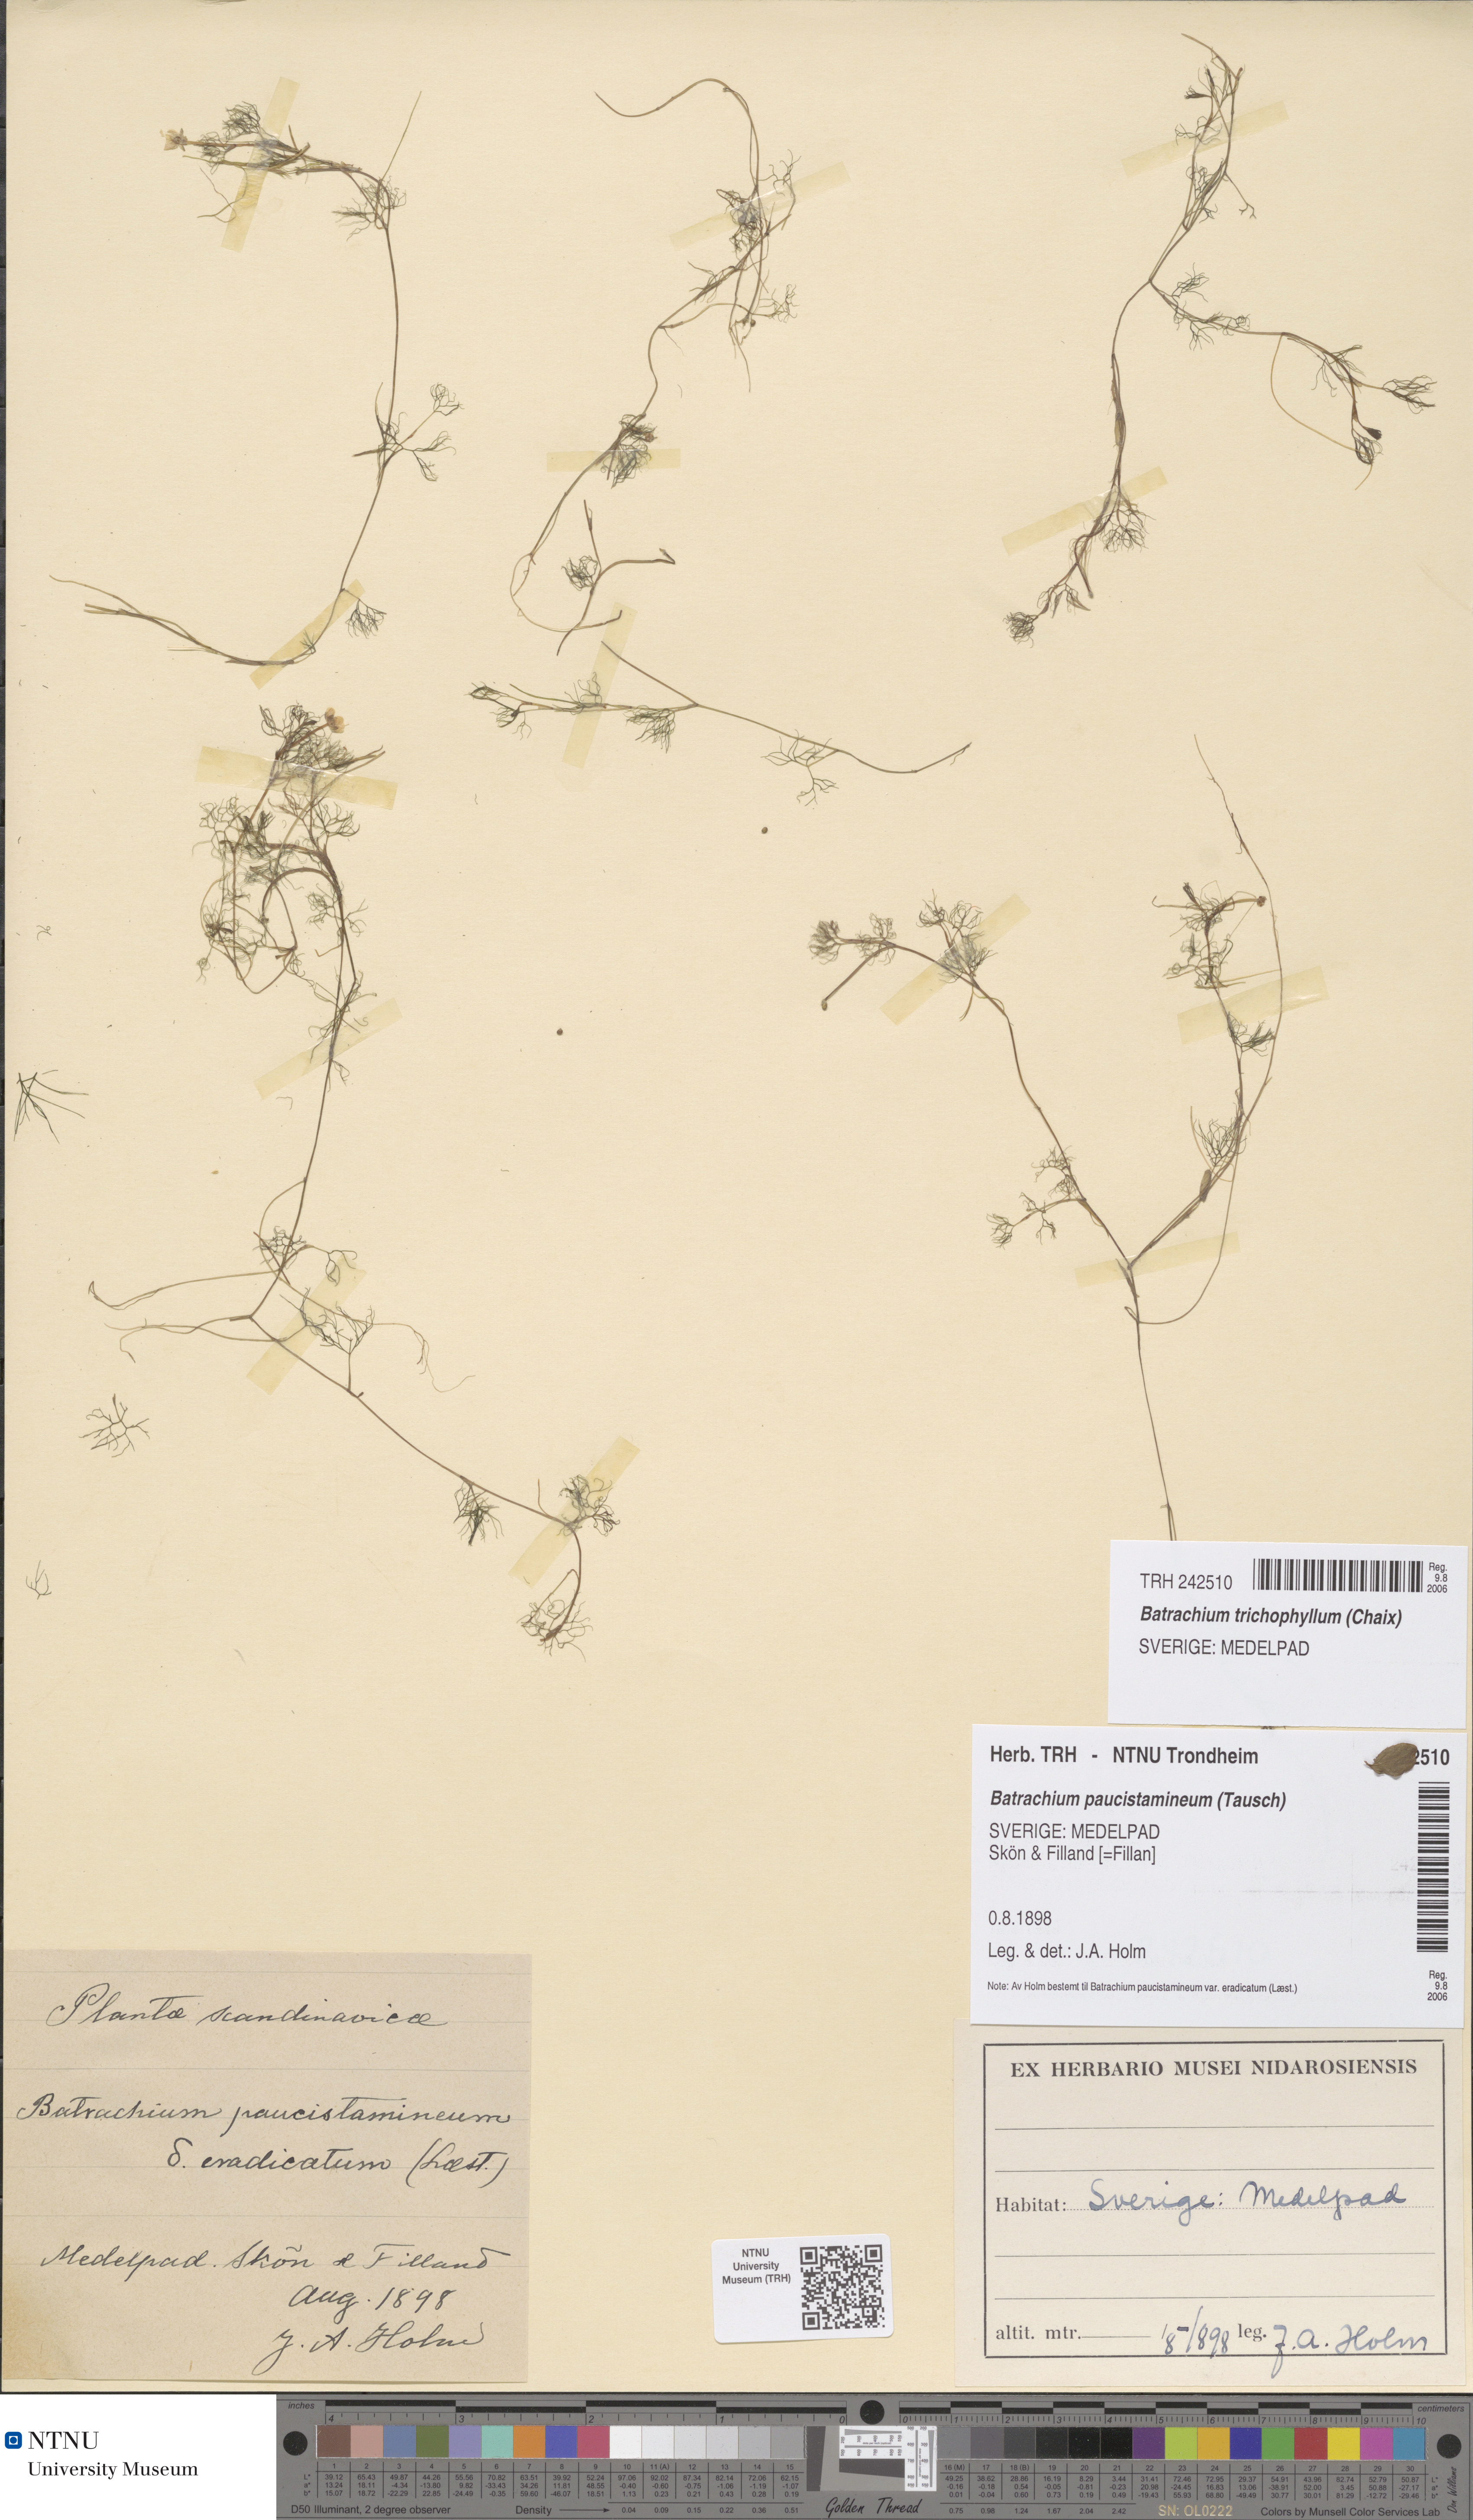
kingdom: Plantae
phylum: Tracheophyta
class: Magnoliopsida
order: Ranunculales
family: Ranunculaceae
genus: Ranunculus
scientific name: Ranunculus trichophyllus
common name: Thread-leaved water-crowfoot
